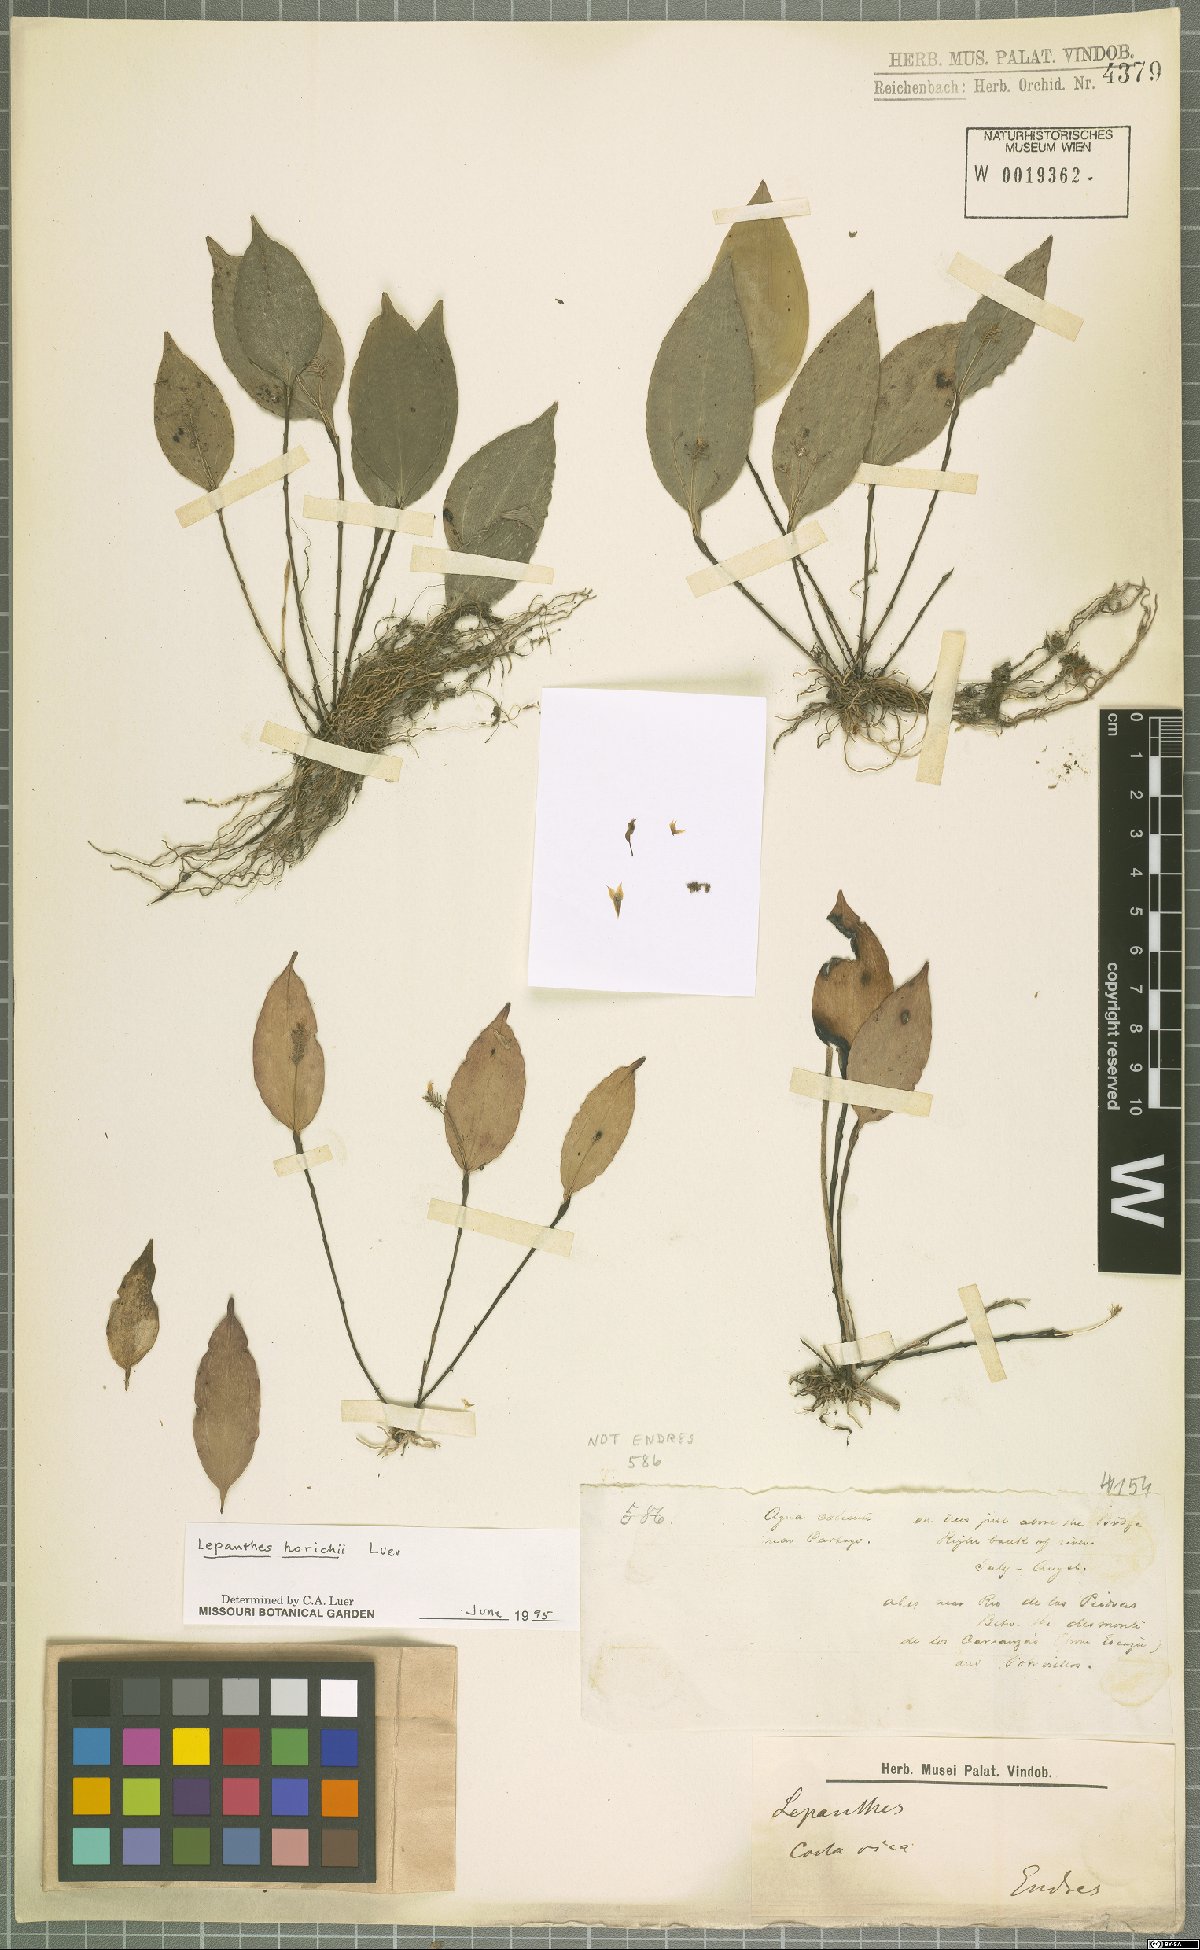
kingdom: Plantae
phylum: Tracheophyta
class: Liliopsida
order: Asparagales
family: Orchidaceae
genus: Lepanthes
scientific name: Lepanthes horichii
